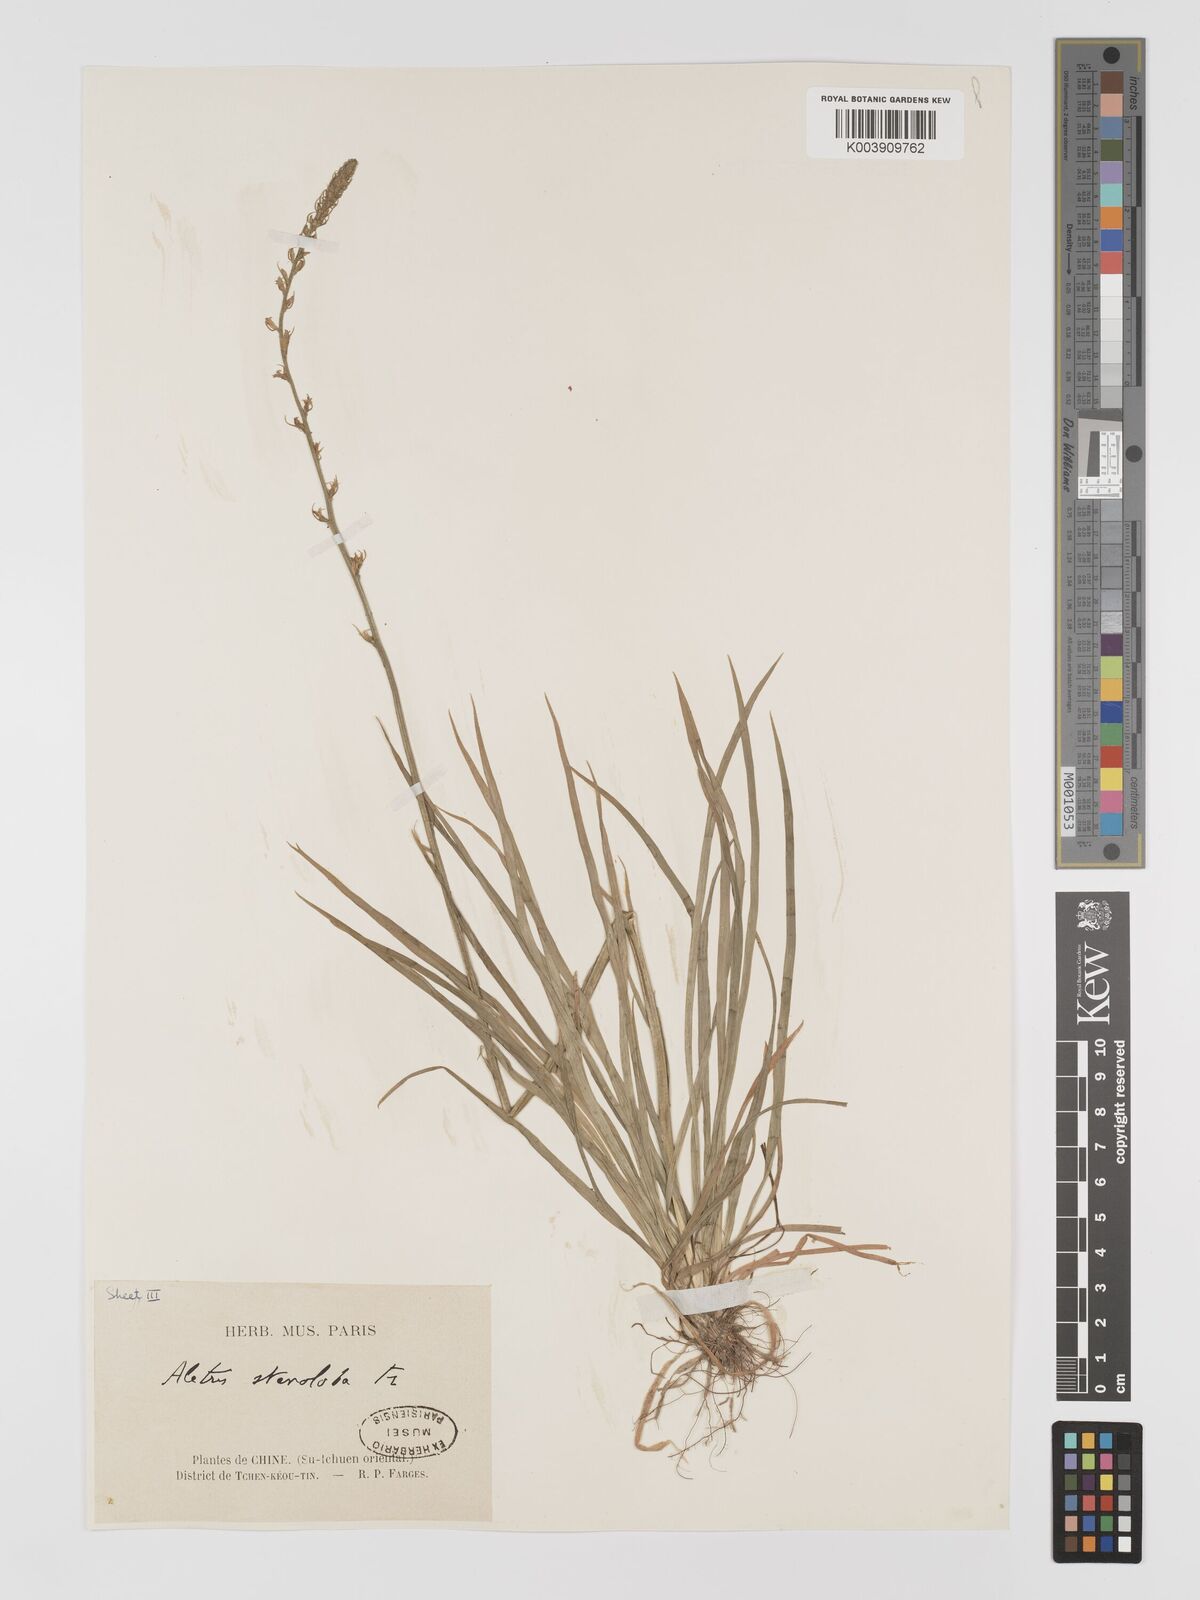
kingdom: Plantae
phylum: Tracheophyta
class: Liliopsida
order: Dioscoreales
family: Nartheciaceae
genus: Aletris
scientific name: Aletris stenoloba
